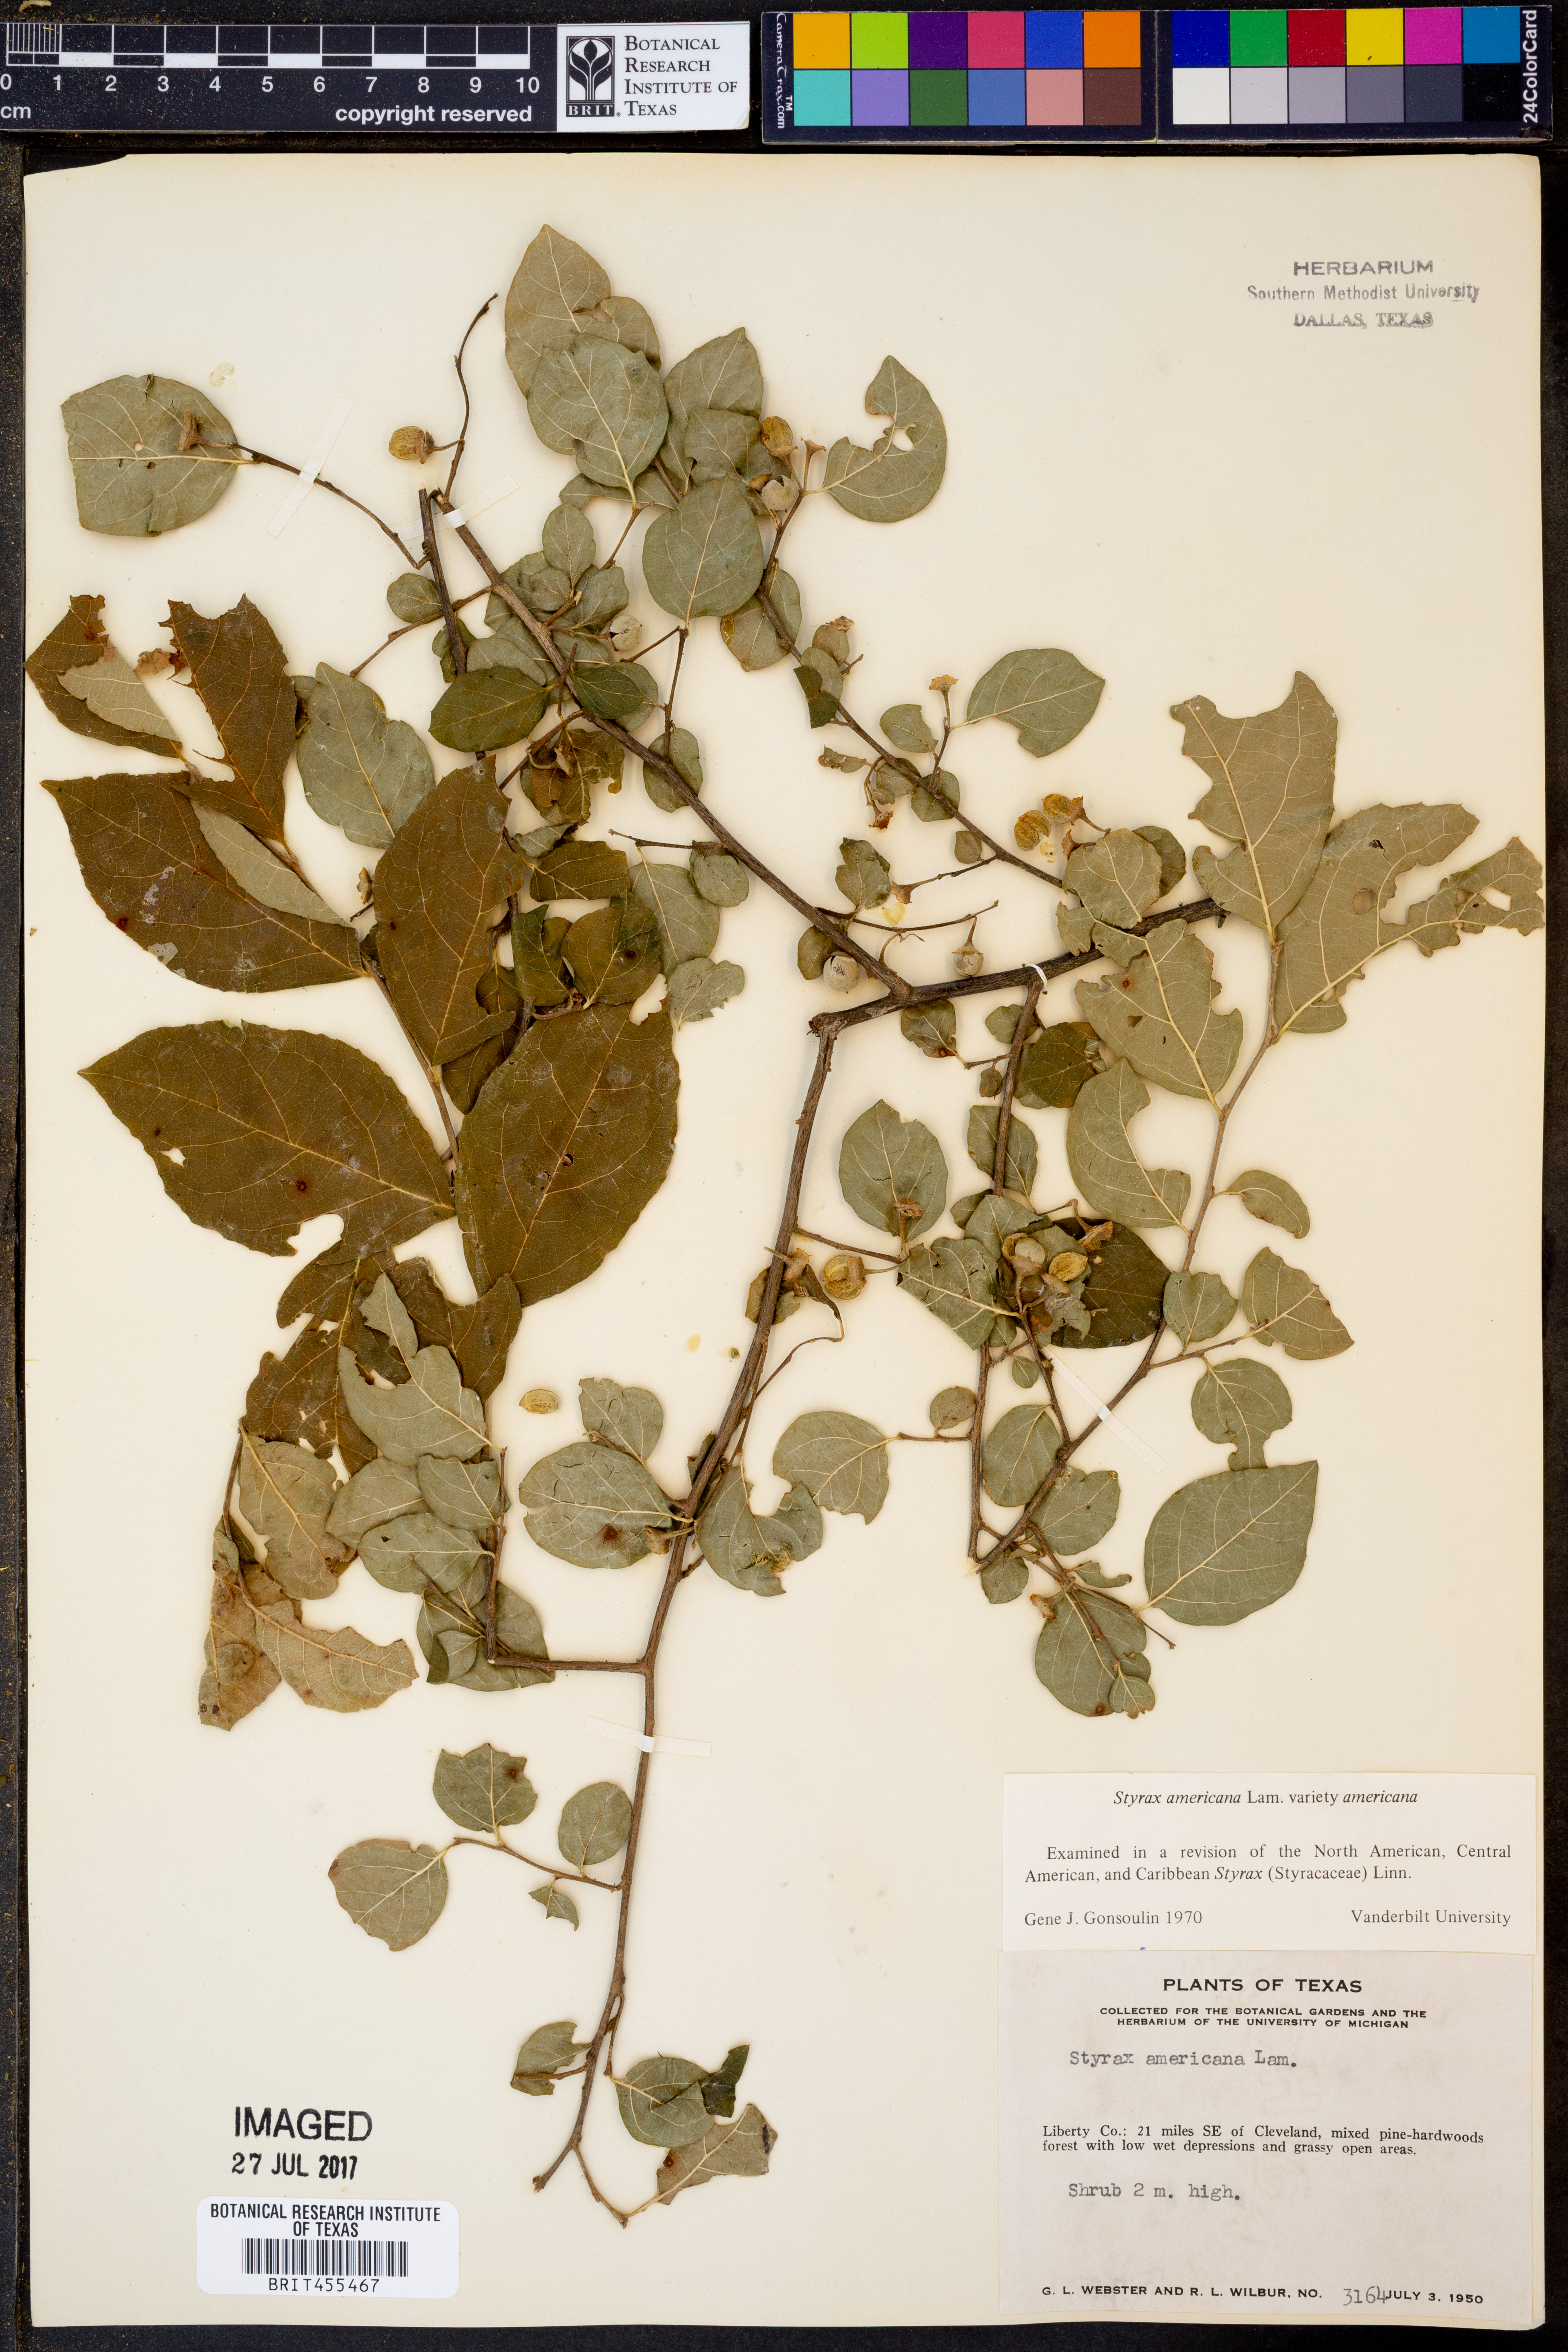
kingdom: Plantae
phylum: Tracheophyta
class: Magnoliopsida
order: Ericales
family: Styracaceae
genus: Styrax
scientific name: Styrax americanus
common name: American snowbell
